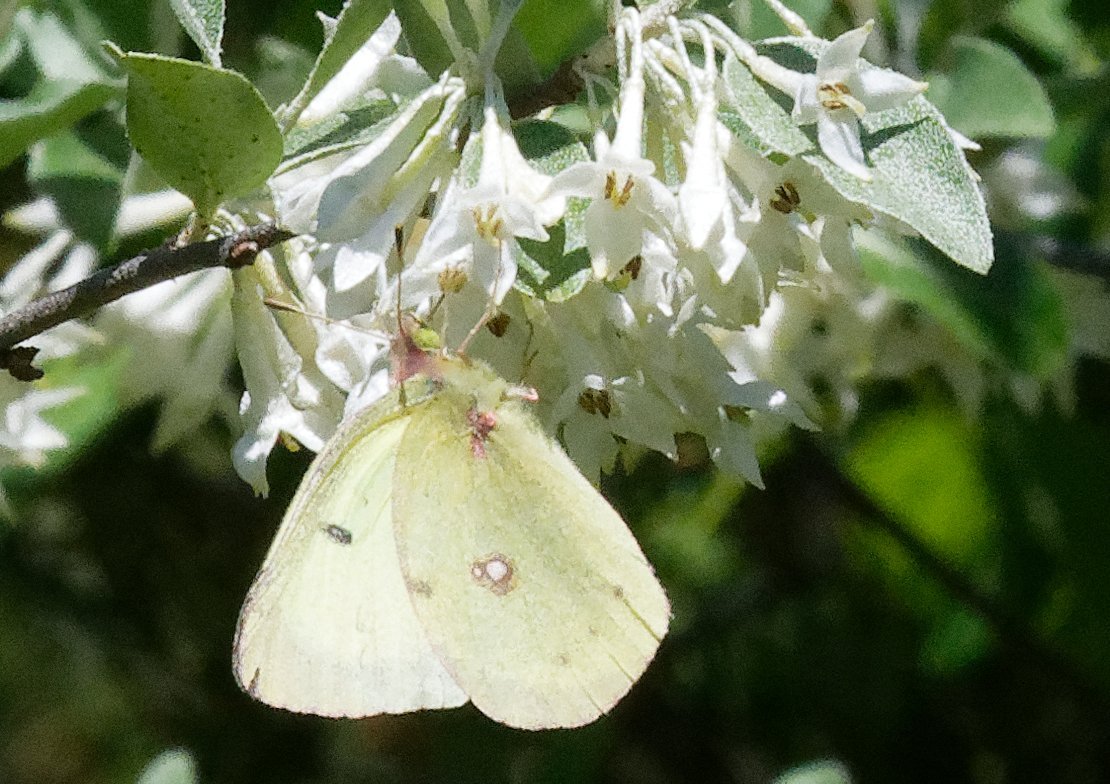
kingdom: Animalia
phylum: Arthropoda
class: Insecta
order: Lepidoptera
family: Pieridae
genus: Colias
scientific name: Colias philodice
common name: Clouded Sulphur
